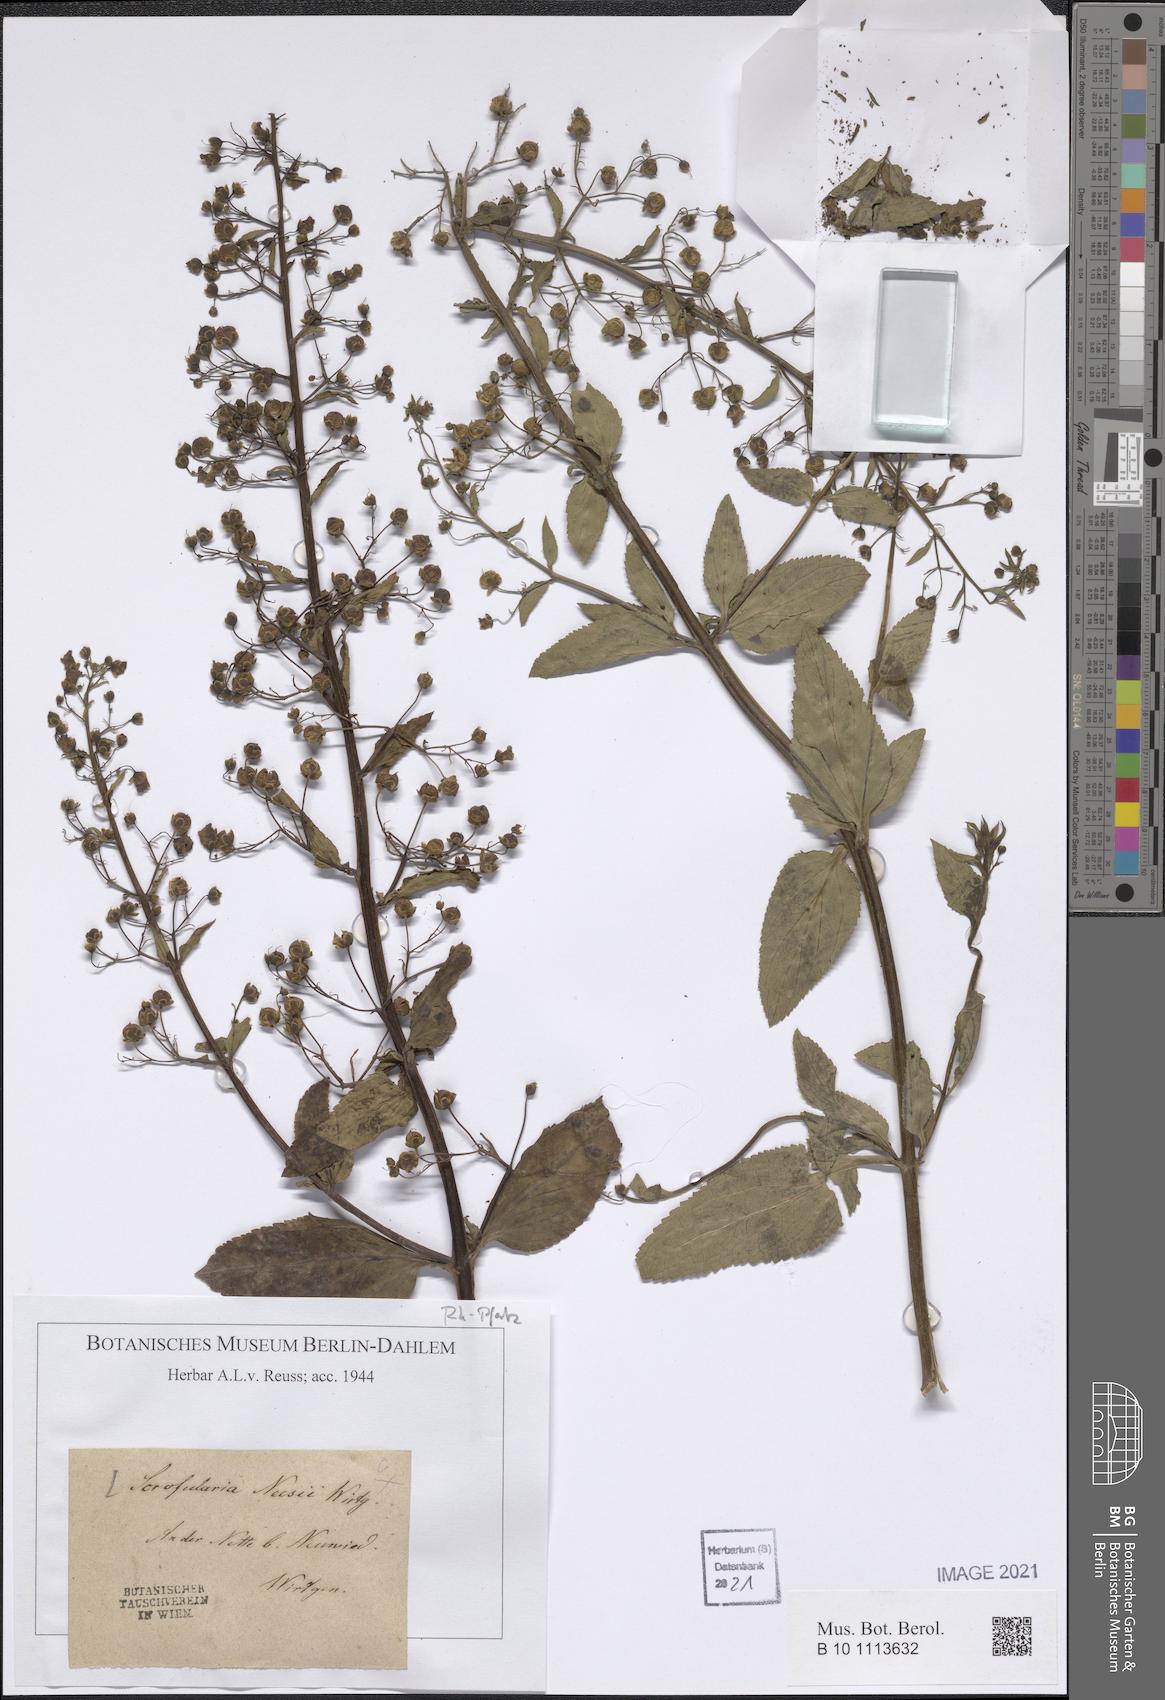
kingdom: Plantae
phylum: Tracheophyta
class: Magnoliopsida
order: Lamiales
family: Scrophulariaceae
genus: Scrophularia
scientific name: Scrophularia neesii
